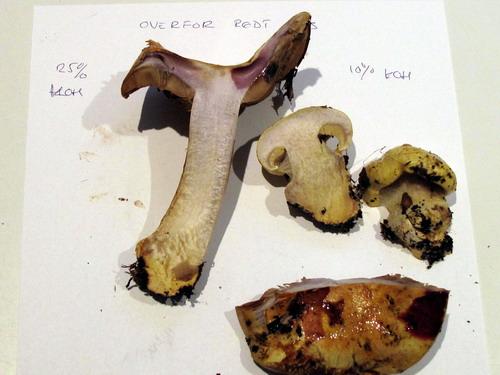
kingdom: Fungi
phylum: Basidiomycota
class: Agaricomycetes
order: Agaricales
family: Cortinariaceae
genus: Cortinarius
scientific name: Cortinarius bergeronii
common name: prægtig slørhat
